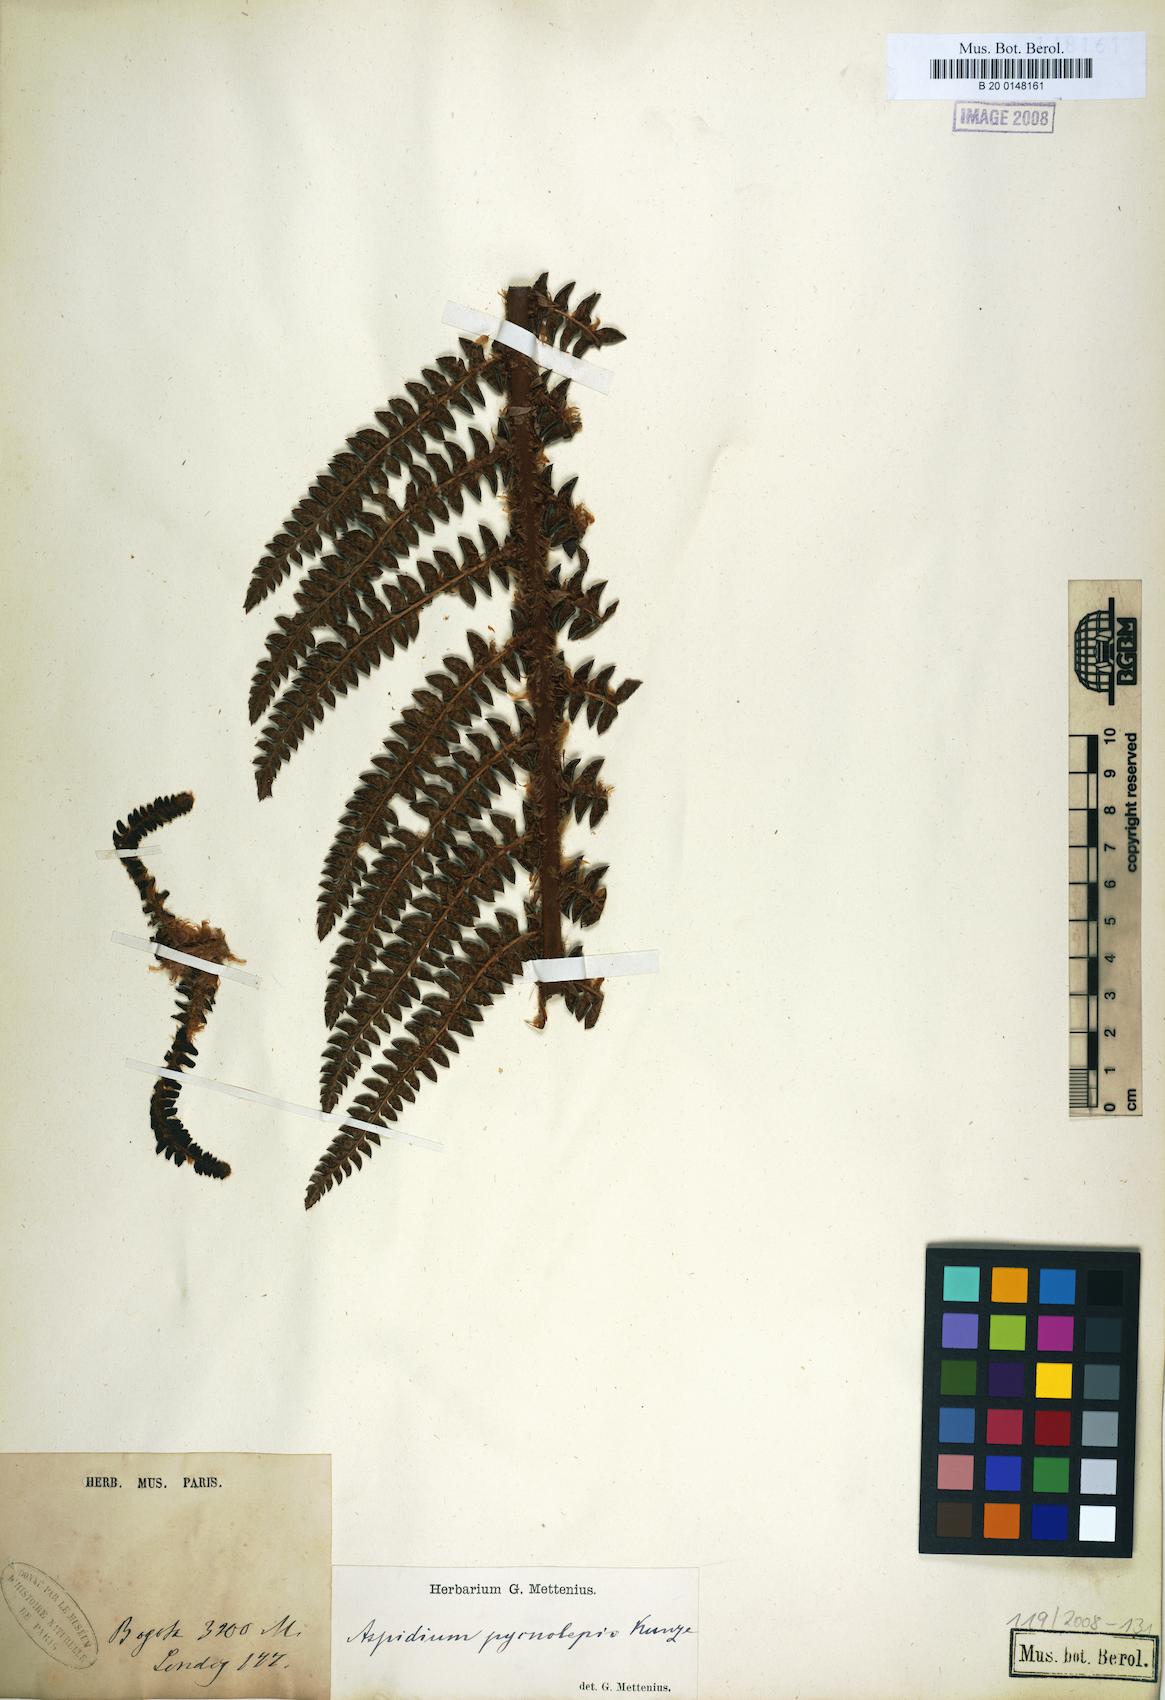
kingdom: Plantae
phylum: Tracheophyta
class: Polypodiopsida
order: Polypodiales
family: Dryopteridaceae
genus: Polystichum
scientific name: Polystichum pycnolepis
